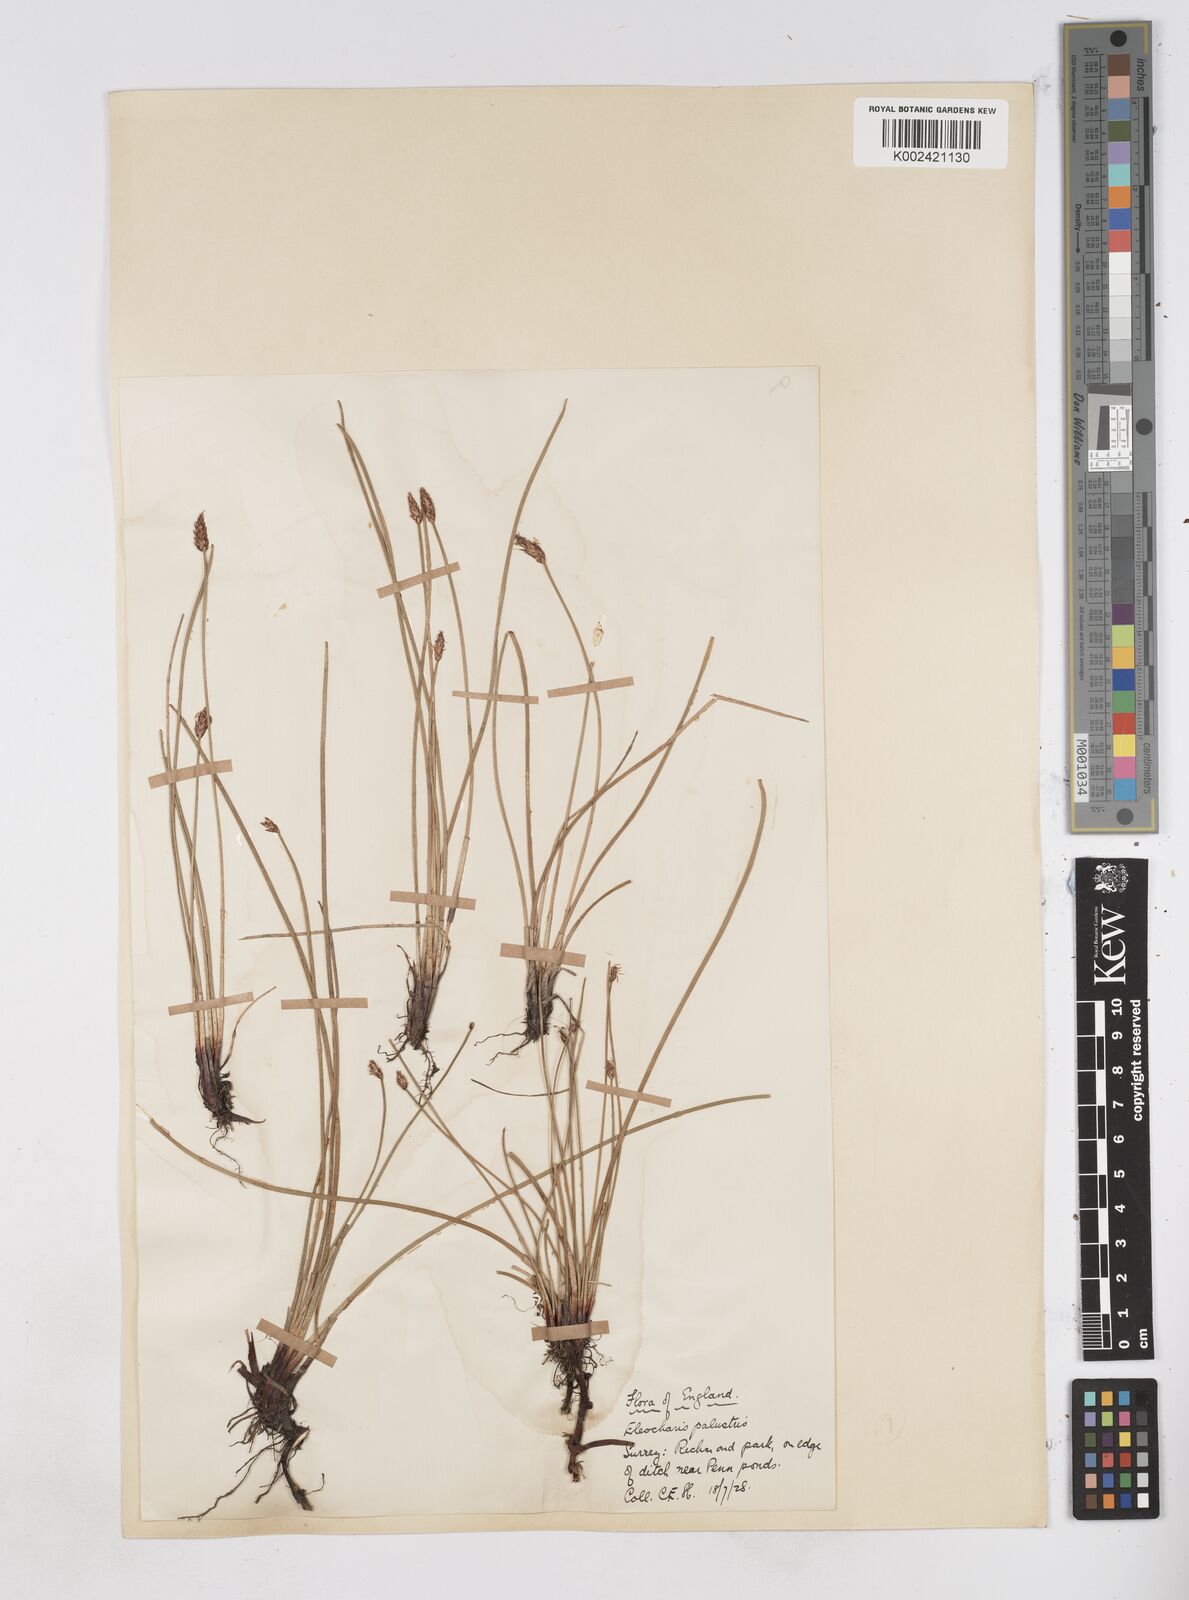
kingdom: Plantae
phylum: Tracheophyta
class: Liliopsida
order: Poales
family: Cyperaceae
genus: Eleocharis
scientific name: Eleocharis palustris
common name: Common spike-rush
